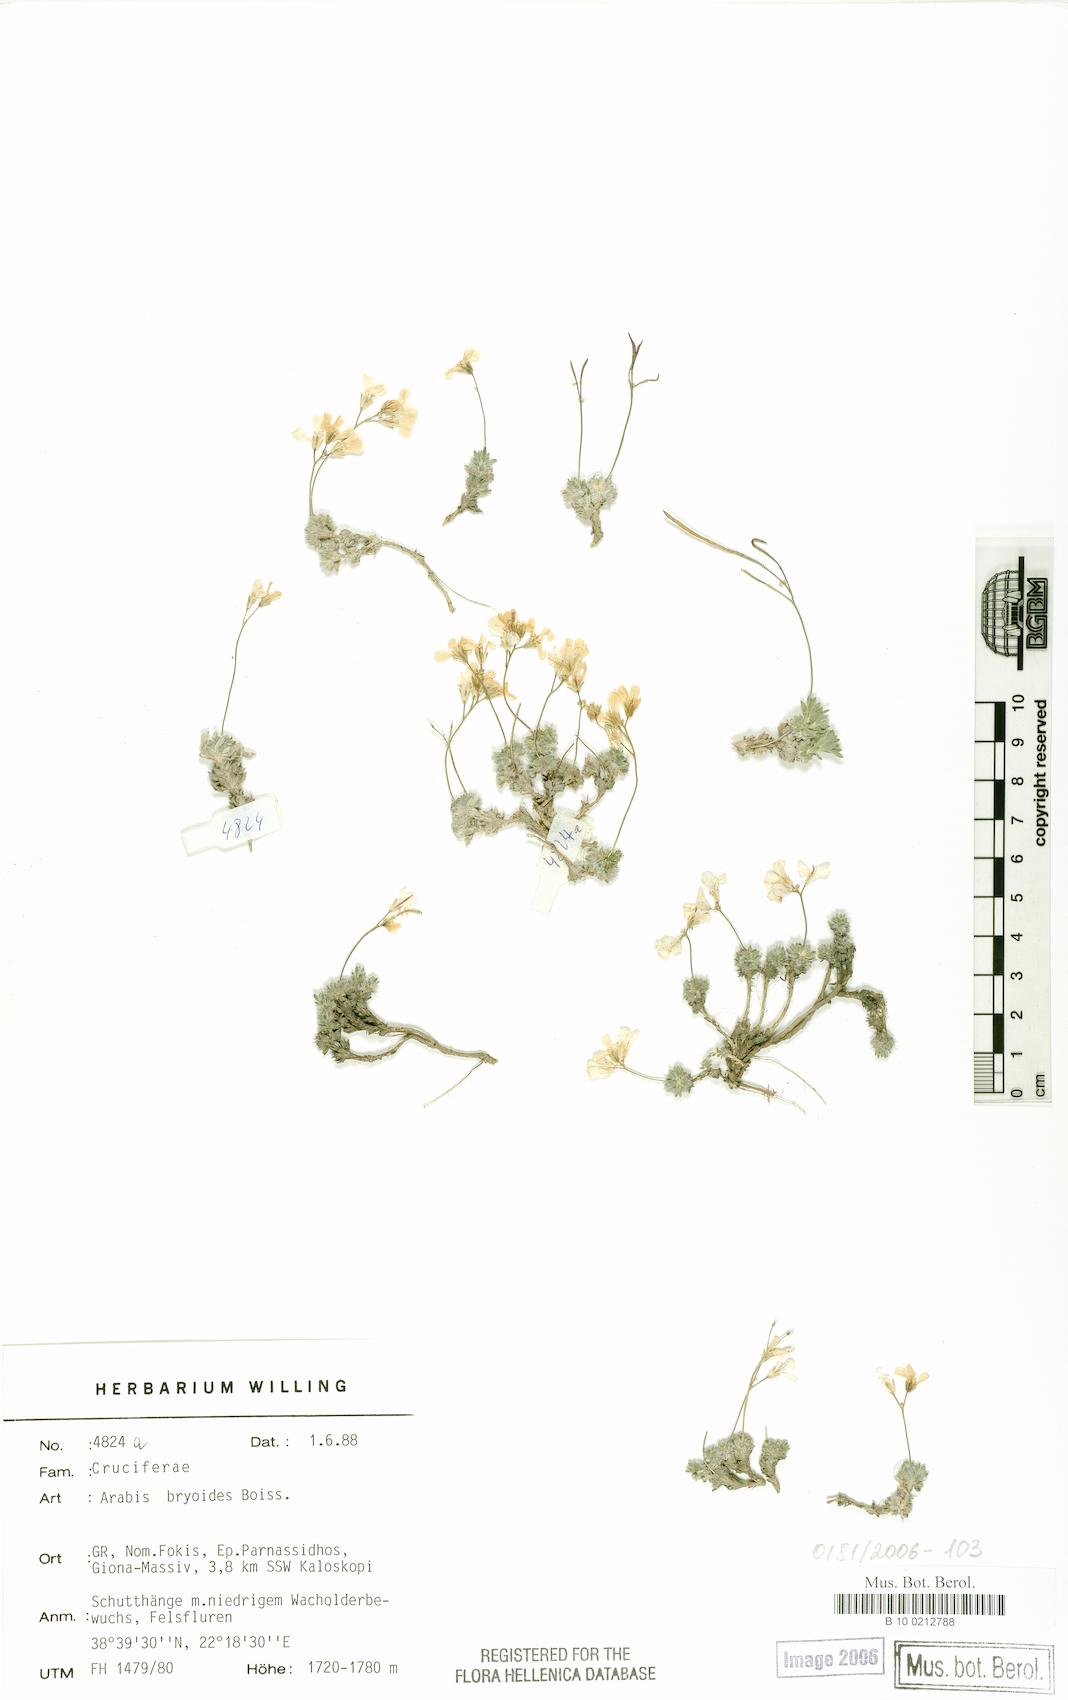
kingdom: Plantae
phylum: Tracheophyta
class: Magnoliopsida
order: Brassicales
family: Brassicaceae
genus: Arabis
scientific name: Arabis bryoides
